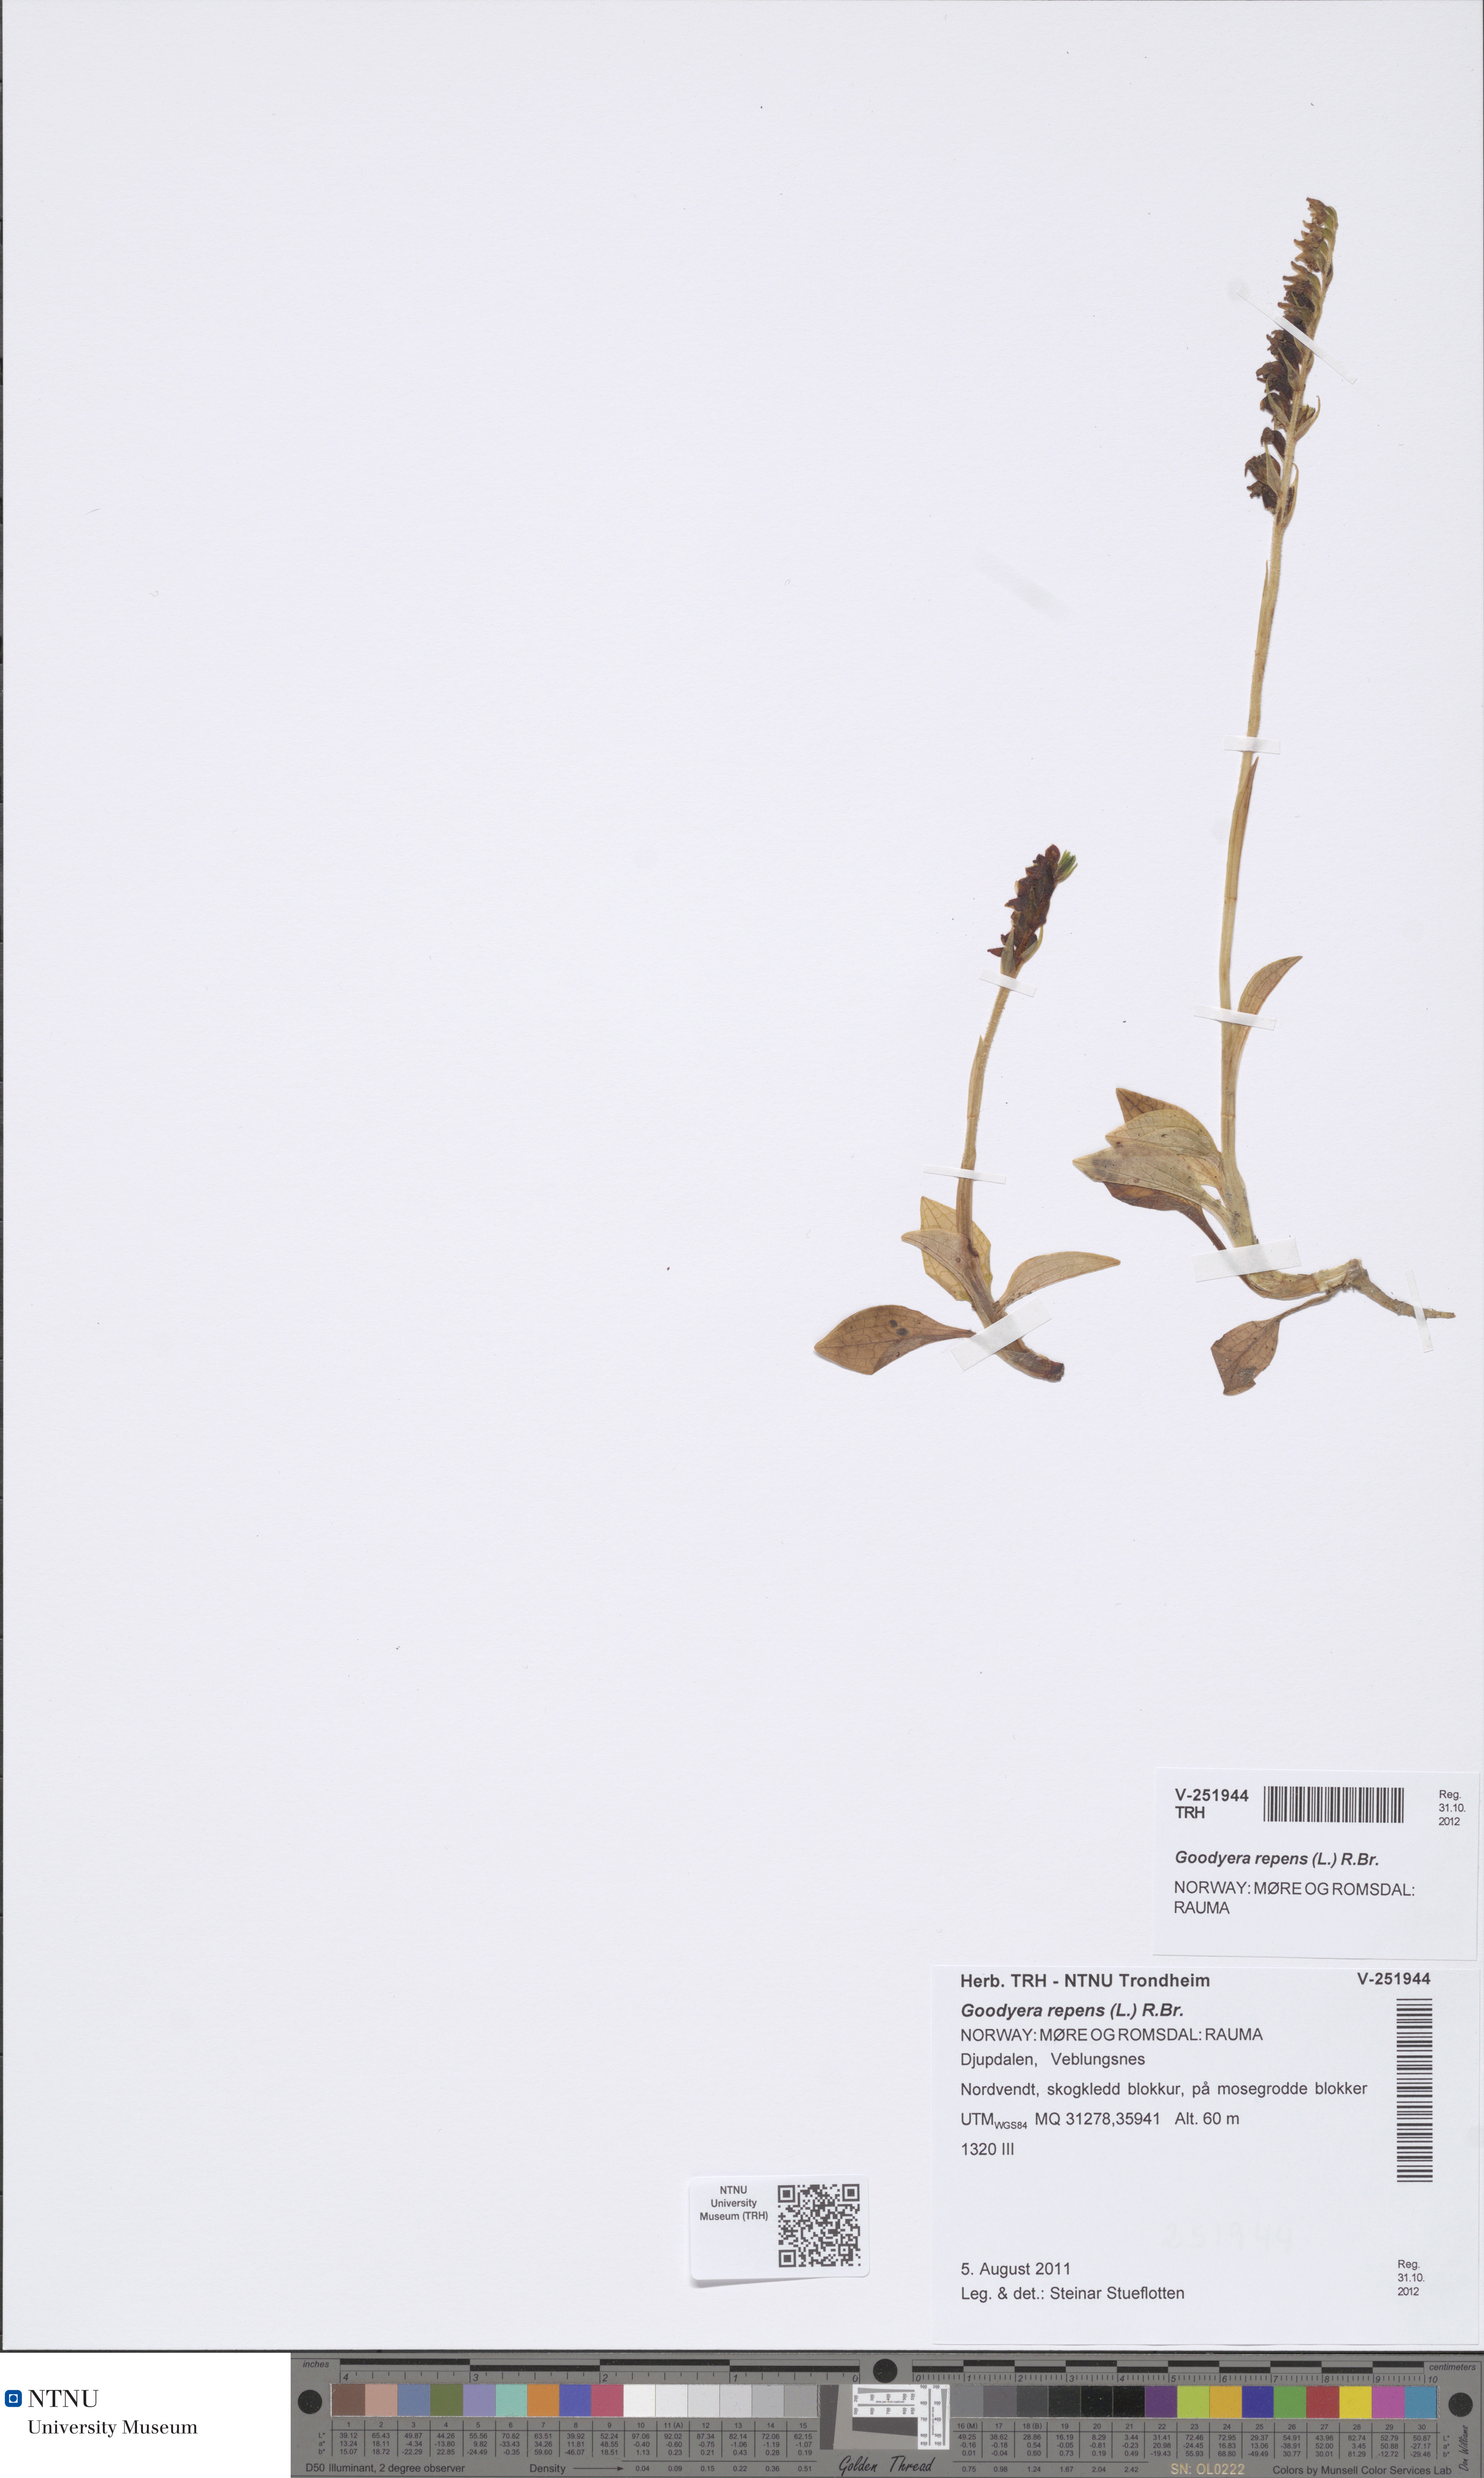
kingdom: Plantae
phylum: Tracheophyta
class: Liliopsida
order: Asparagales
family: Orchidaceae
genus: Goodyera
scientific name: Goodyera repens
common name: Creeping lady's-tresses
